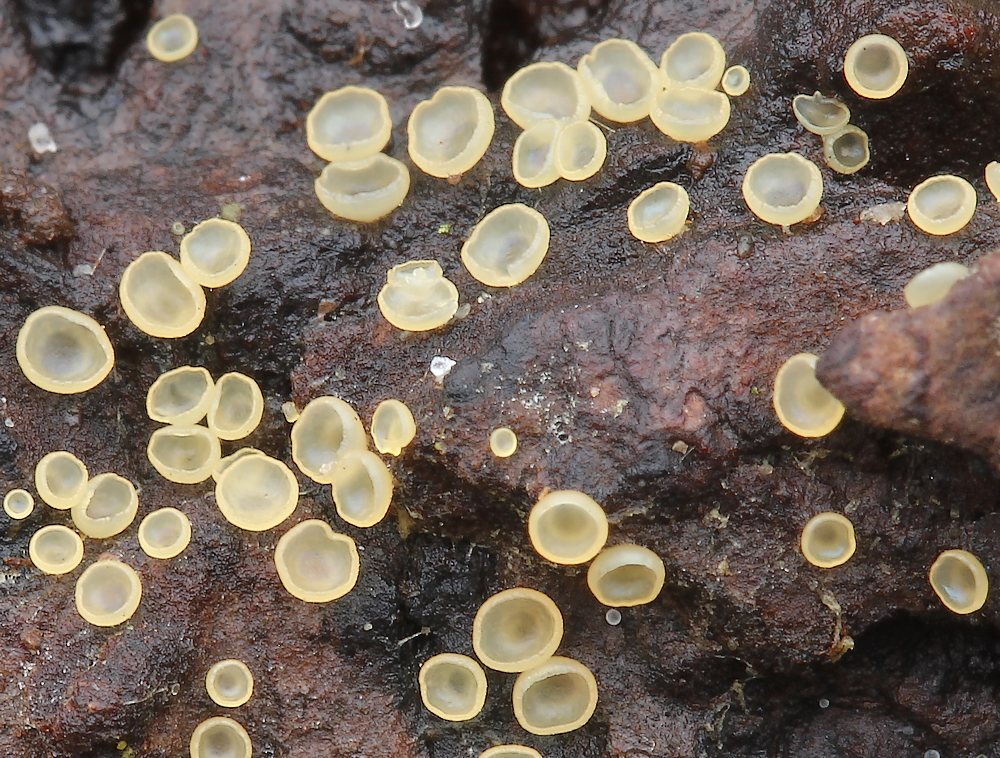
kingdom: Fungi
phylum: Ascomycota
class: Orbiliomycetes
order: Orbiliales
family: Orbiliaceae
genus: Hyalorbilia
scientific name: Hyalorbilia inflatula
